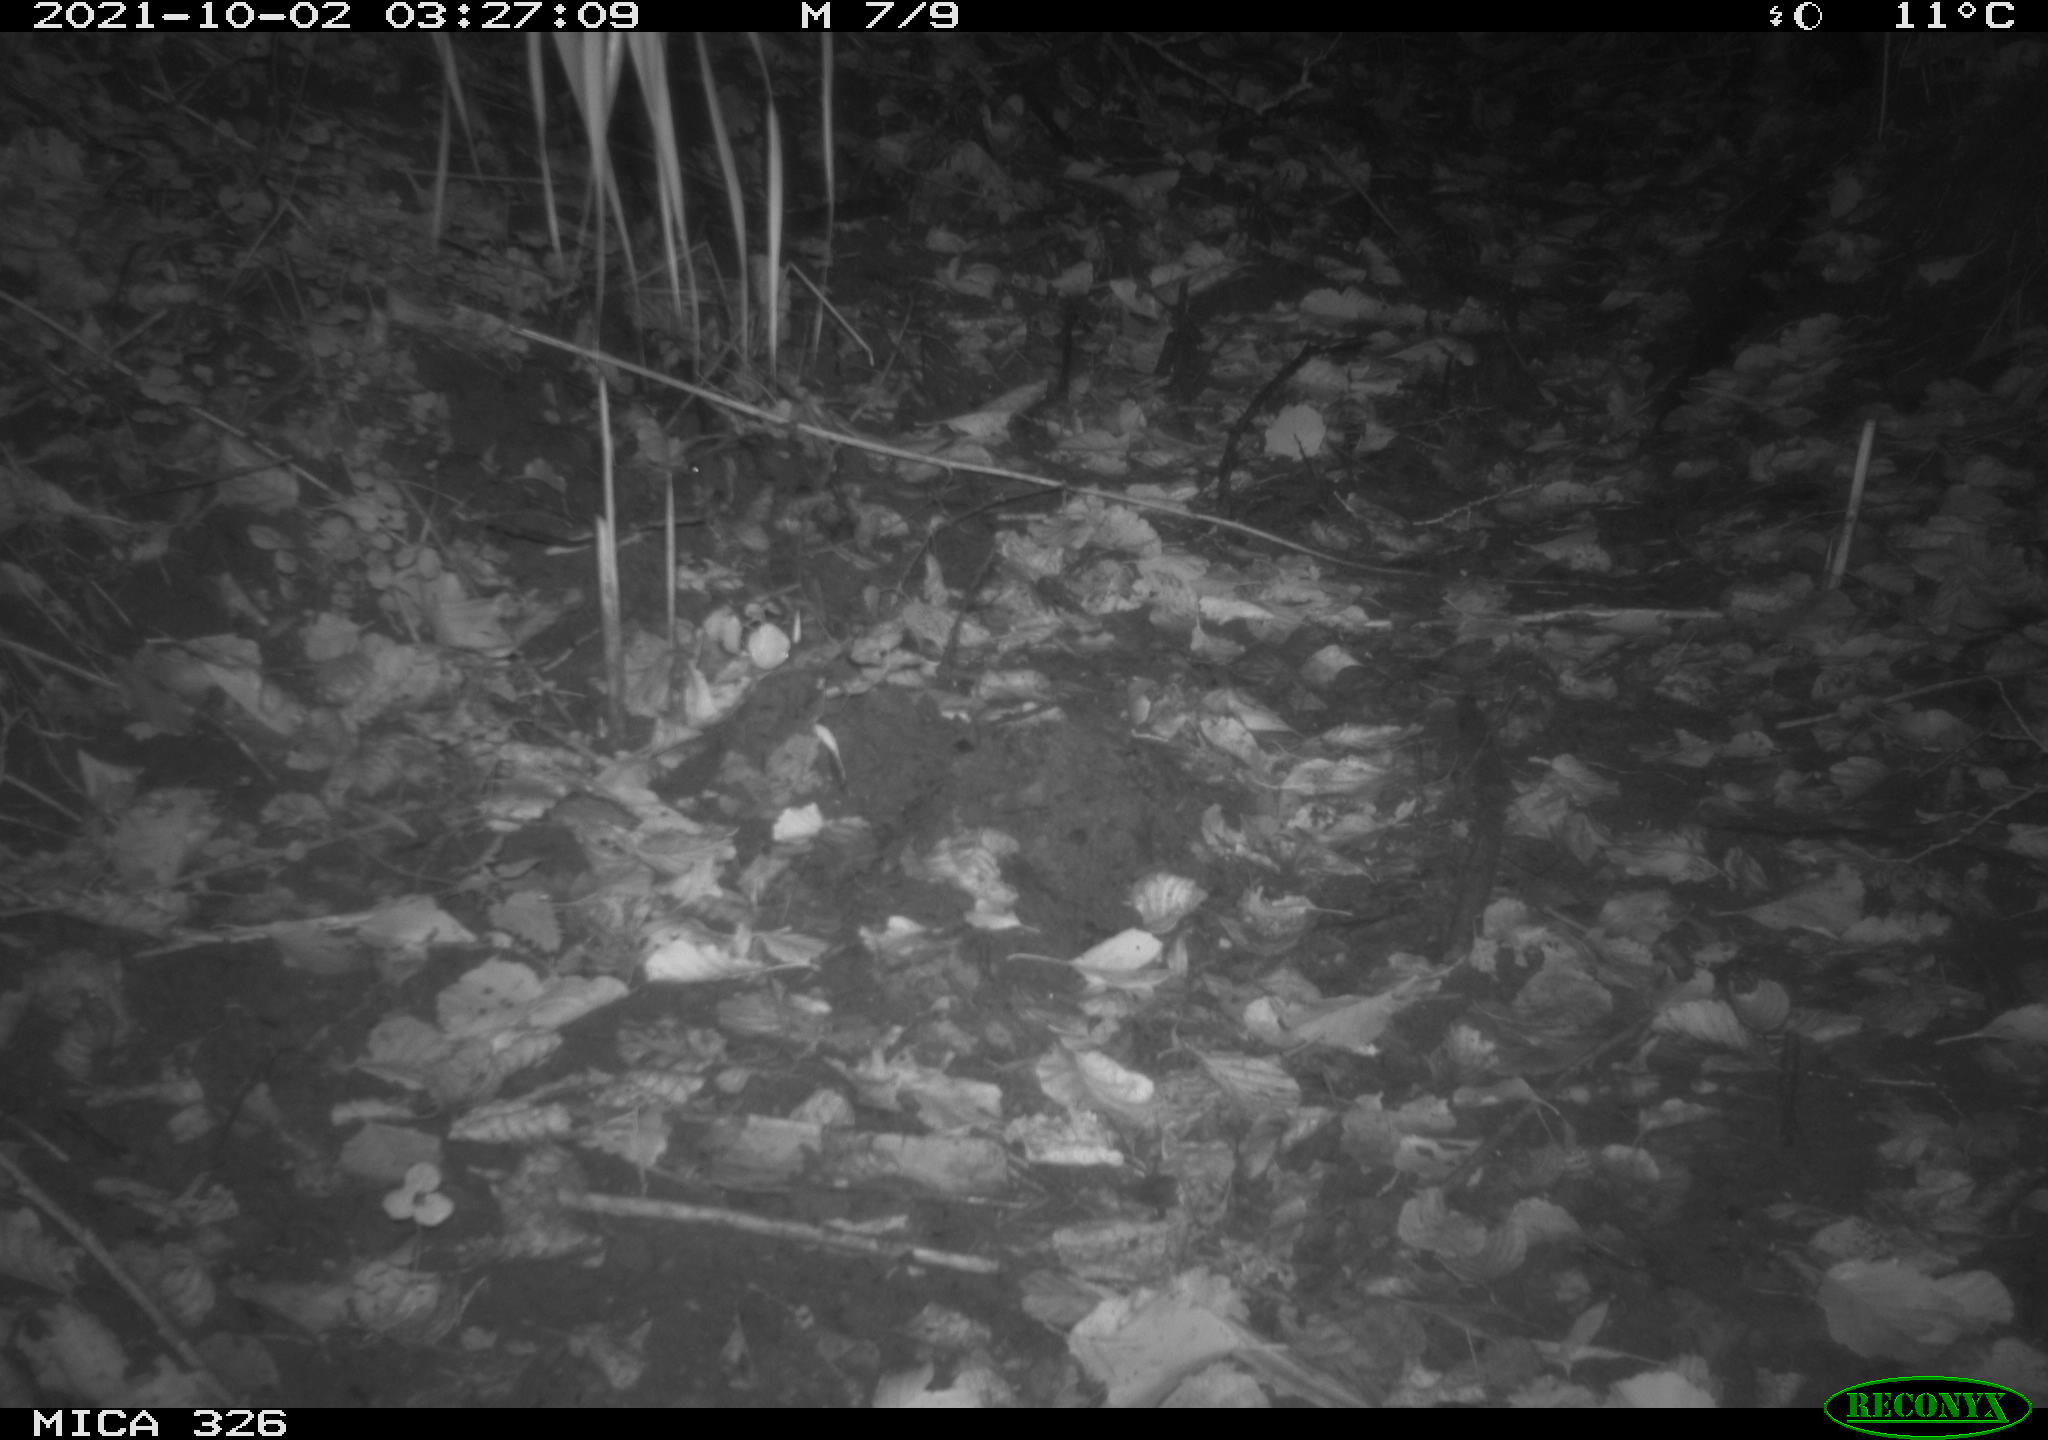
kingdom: Animalia
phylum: Chordata
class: Mammalia
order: Rodentia
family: Cricetidae
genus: Ondatra
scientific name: Ondatra zibethicus
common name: Muskrat
